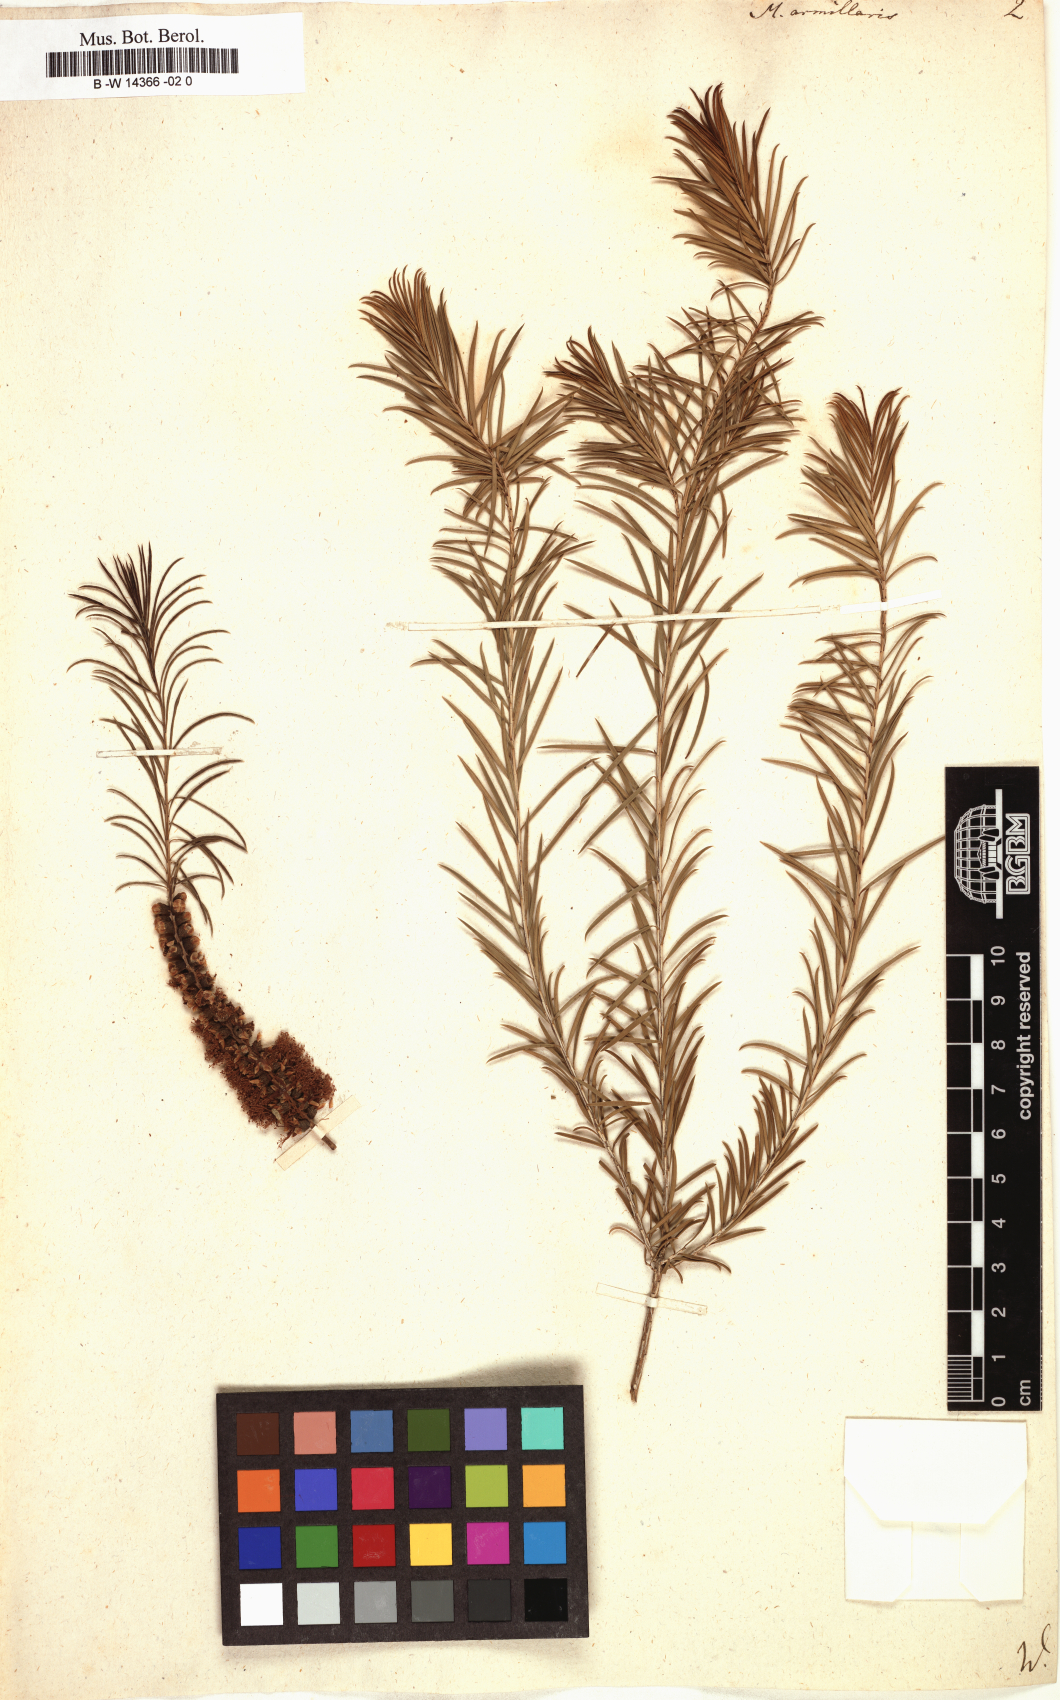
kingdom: Plantae
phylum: Tracheophyta
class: Magnoliopsida
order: Myrtales
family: Myrtaceae
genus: Melaleuca
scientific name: Melaleuca armillaris
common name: Bracelet honey myrtle
